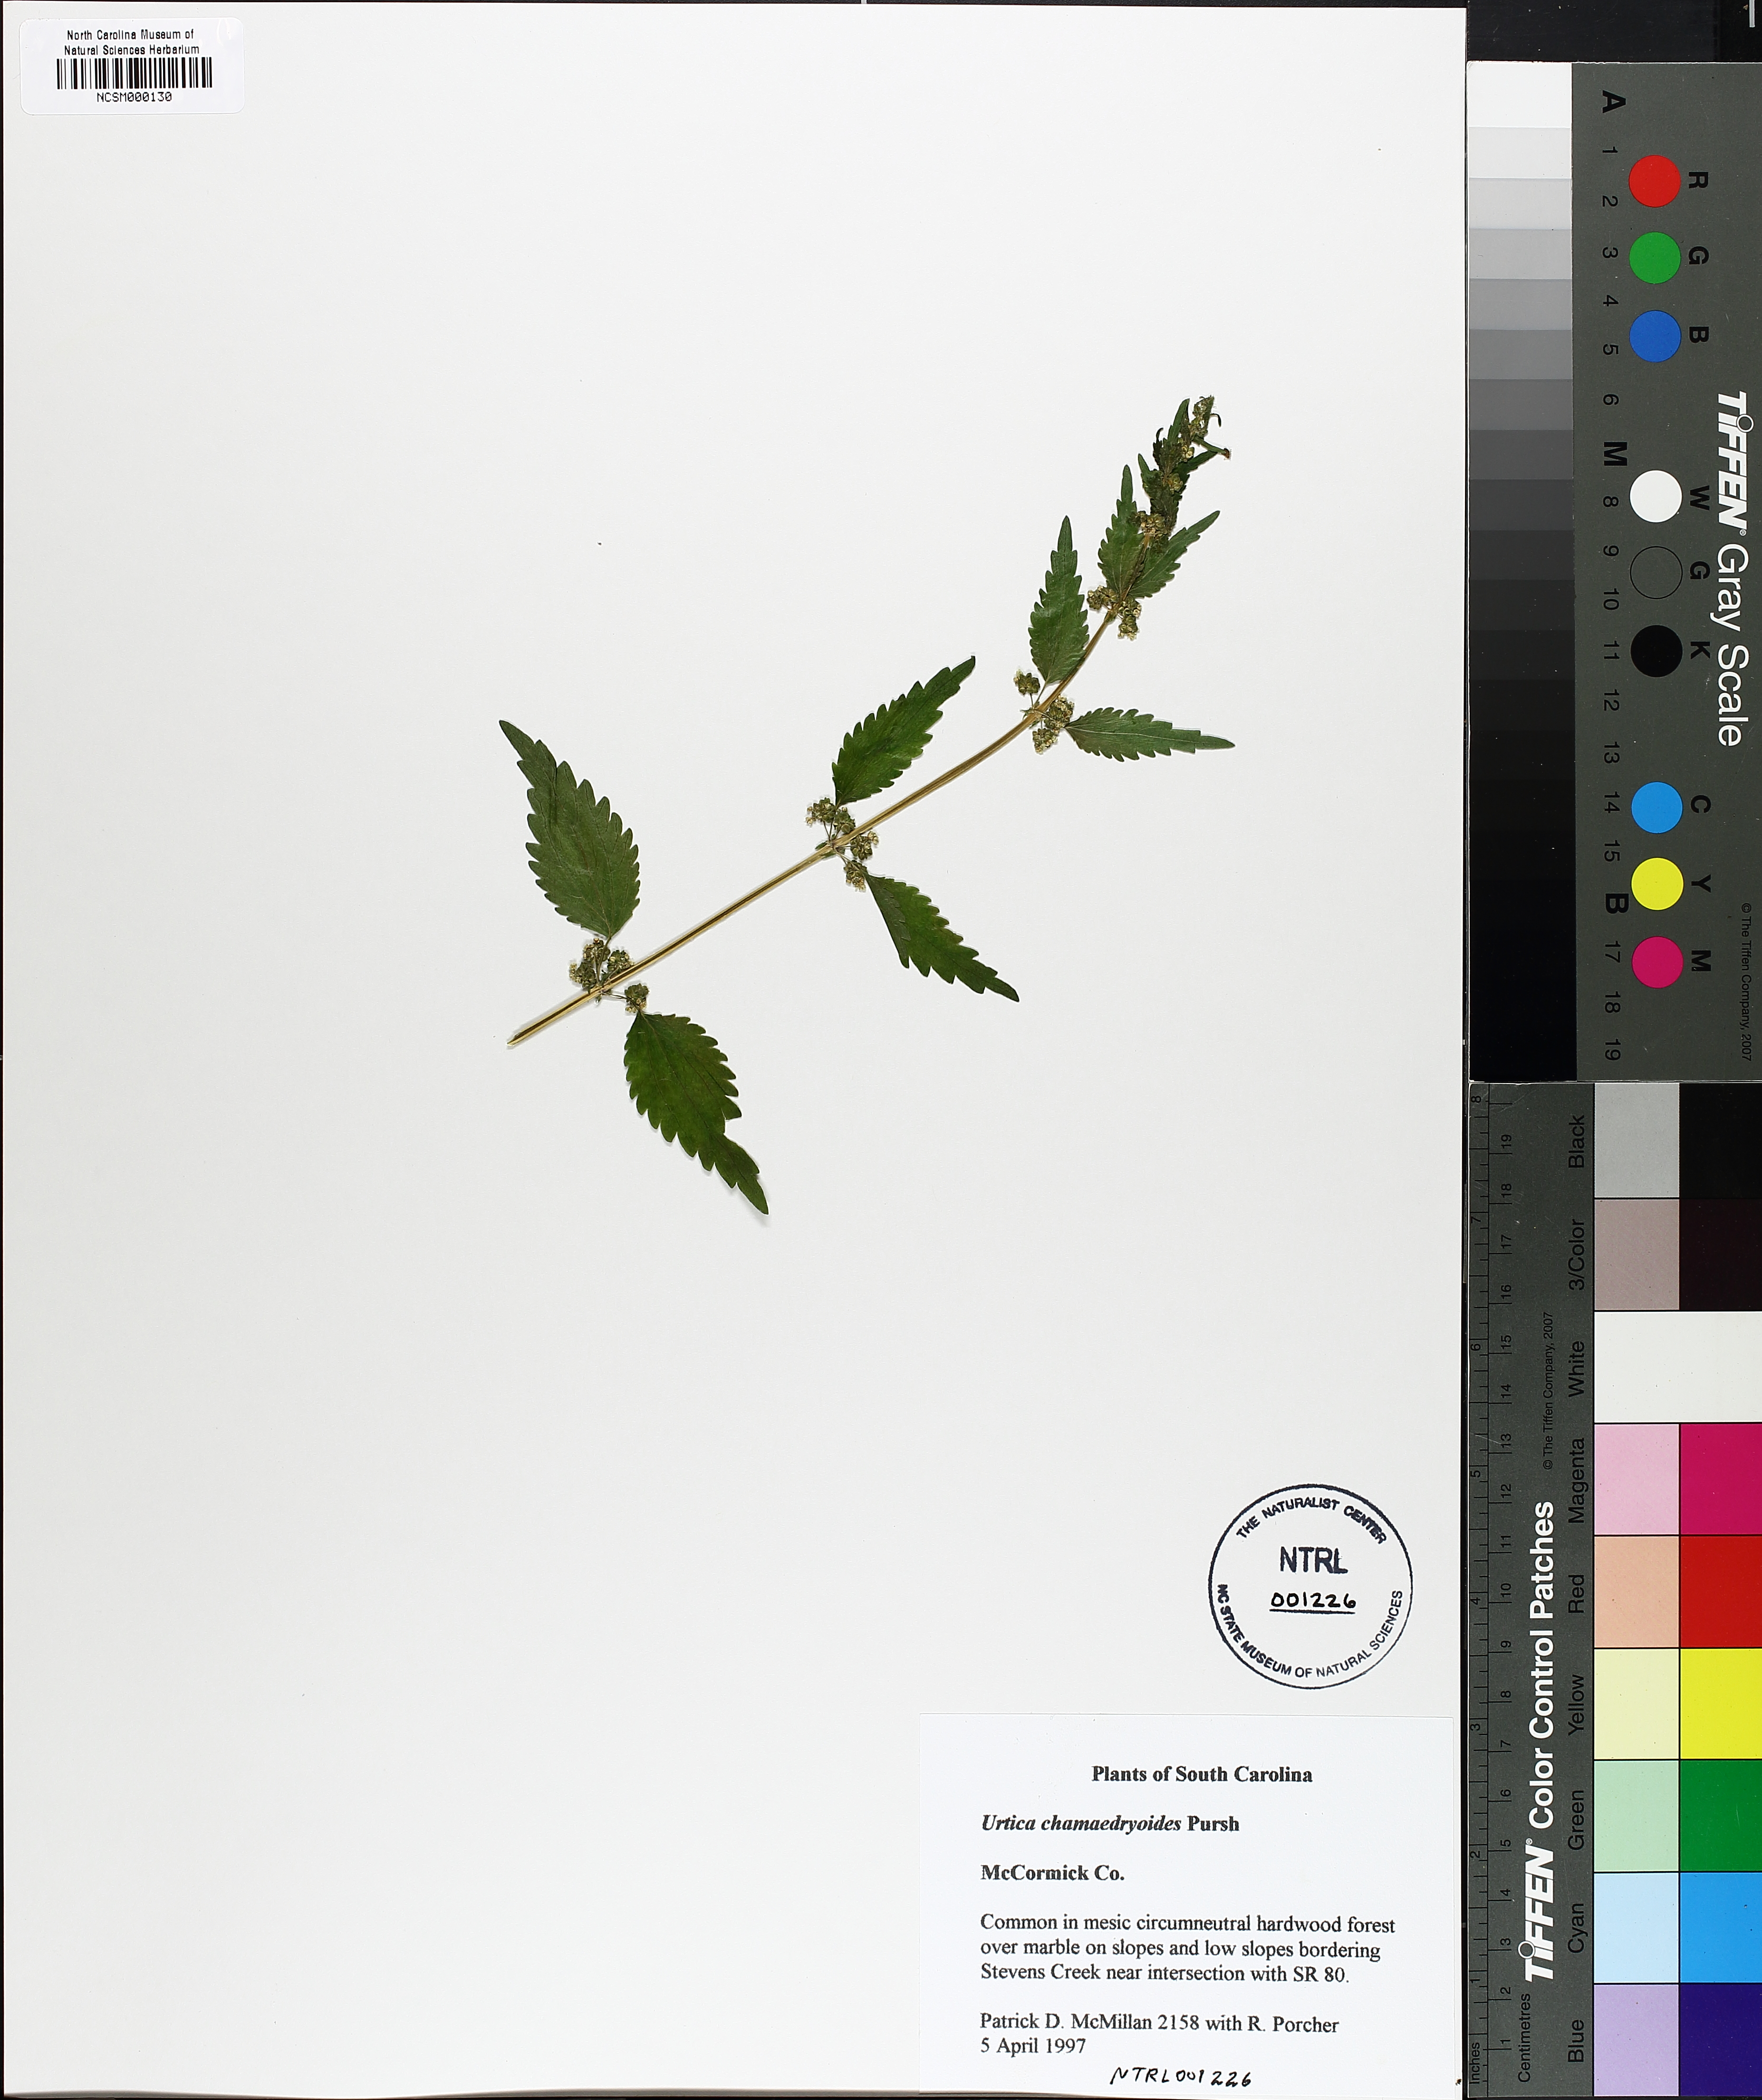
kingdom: Plantae
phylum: Tracheophyta
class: Magnoliopsida
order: Rosales
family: Urticaceae
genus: Urtica
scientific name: Urtica chamaedryoides
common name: Heart-leaf nettle
